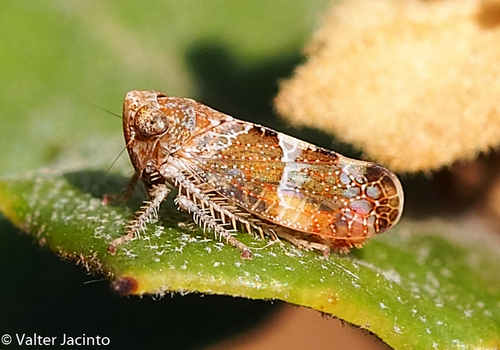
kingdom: Animalia
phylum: Arthropoda
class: Insecta
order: Hemiptera
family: Cicadellidae
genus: Stegelytra
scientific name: Stegelytra
